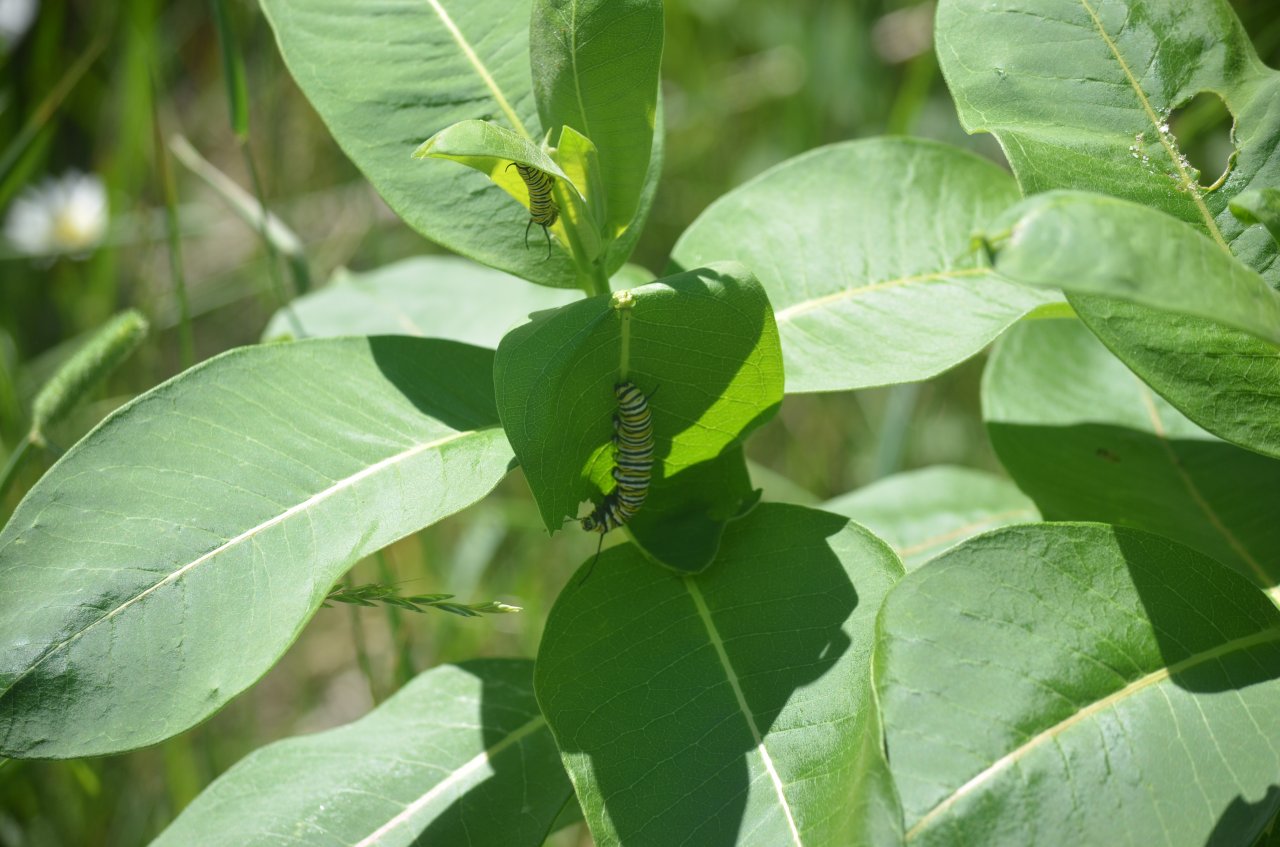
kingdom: Animalia
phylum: Arthropoda
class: Insecta
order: Lepidoptera
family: Nymphalidae
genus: Danaus
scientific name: Danaus plexippus
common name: Monarch
